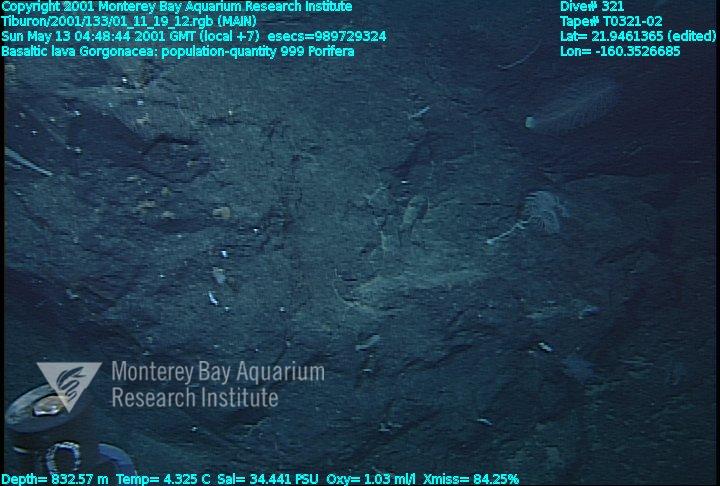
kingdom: Animalia
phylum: Porifera
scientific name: Porifera
